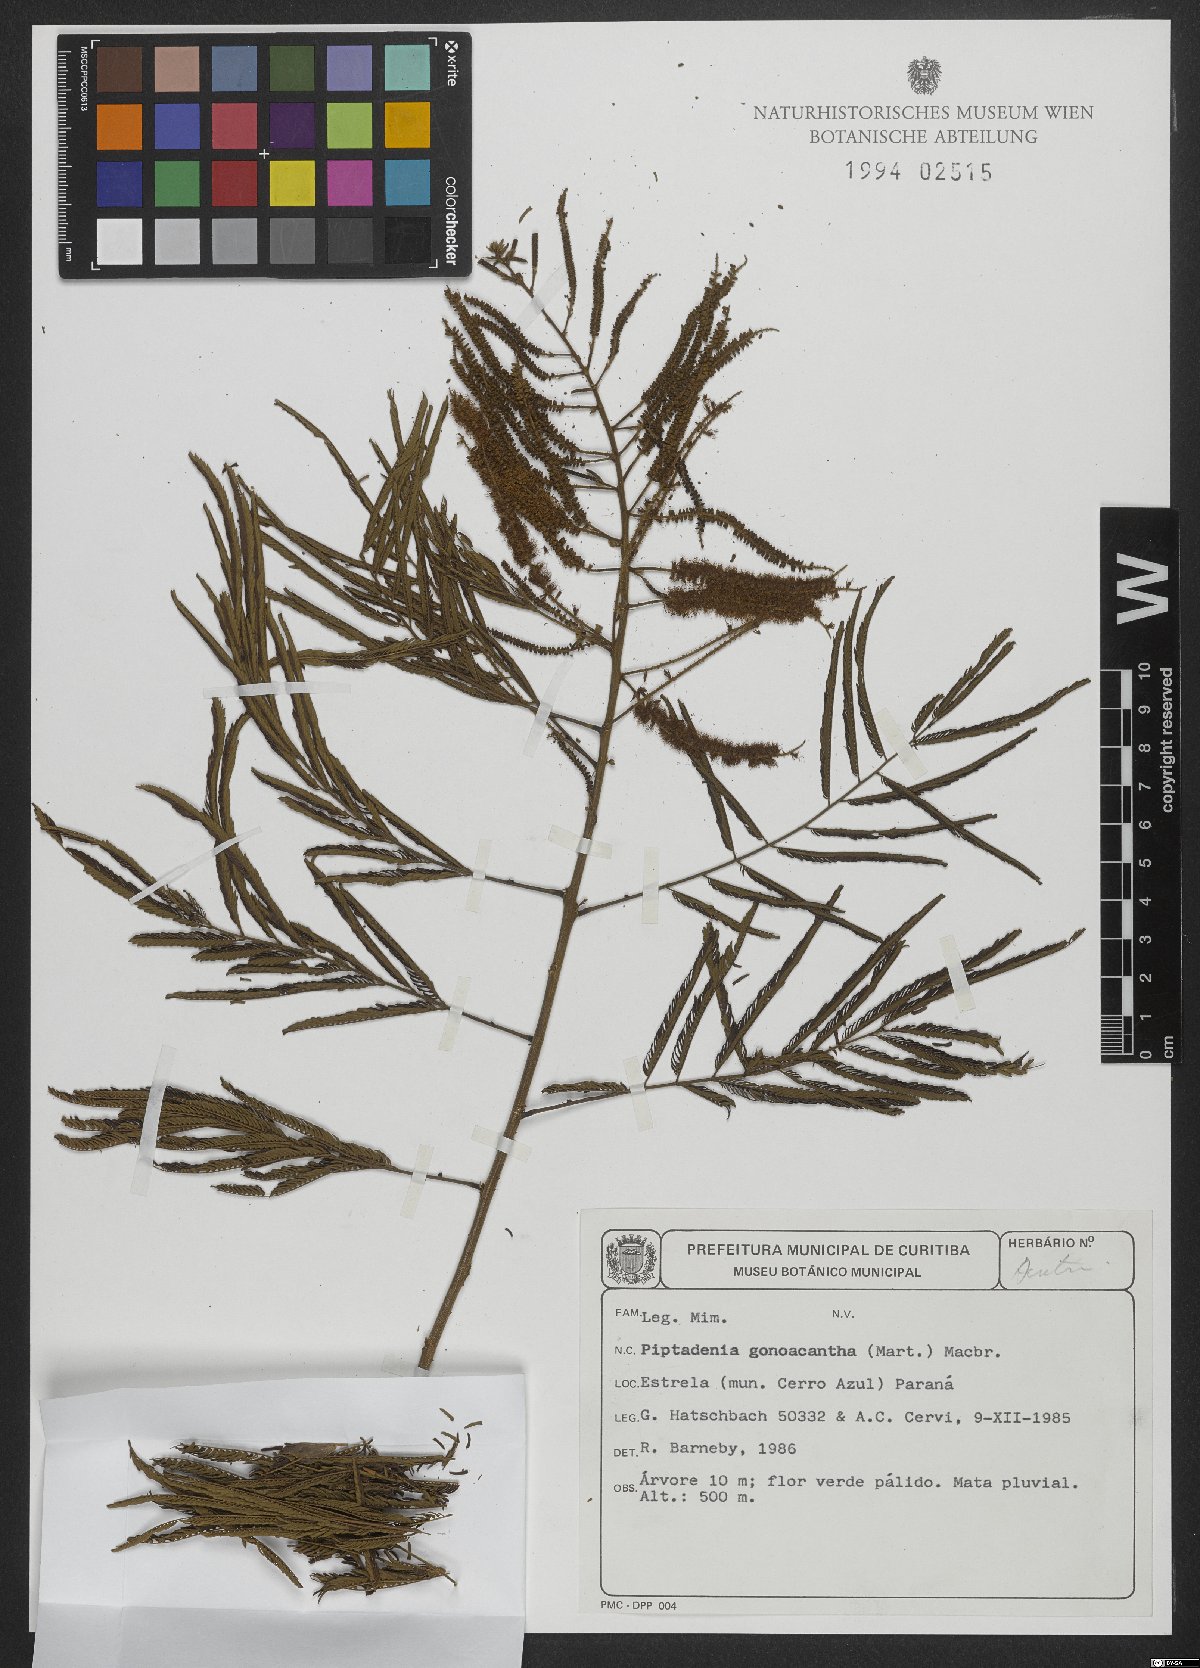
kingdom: Plantae
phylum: Tracheophyta
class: Magnoliopsida
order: Fabales
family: Fabaceae
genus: Piptadenia
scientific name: Piptadenia gonoacantha
